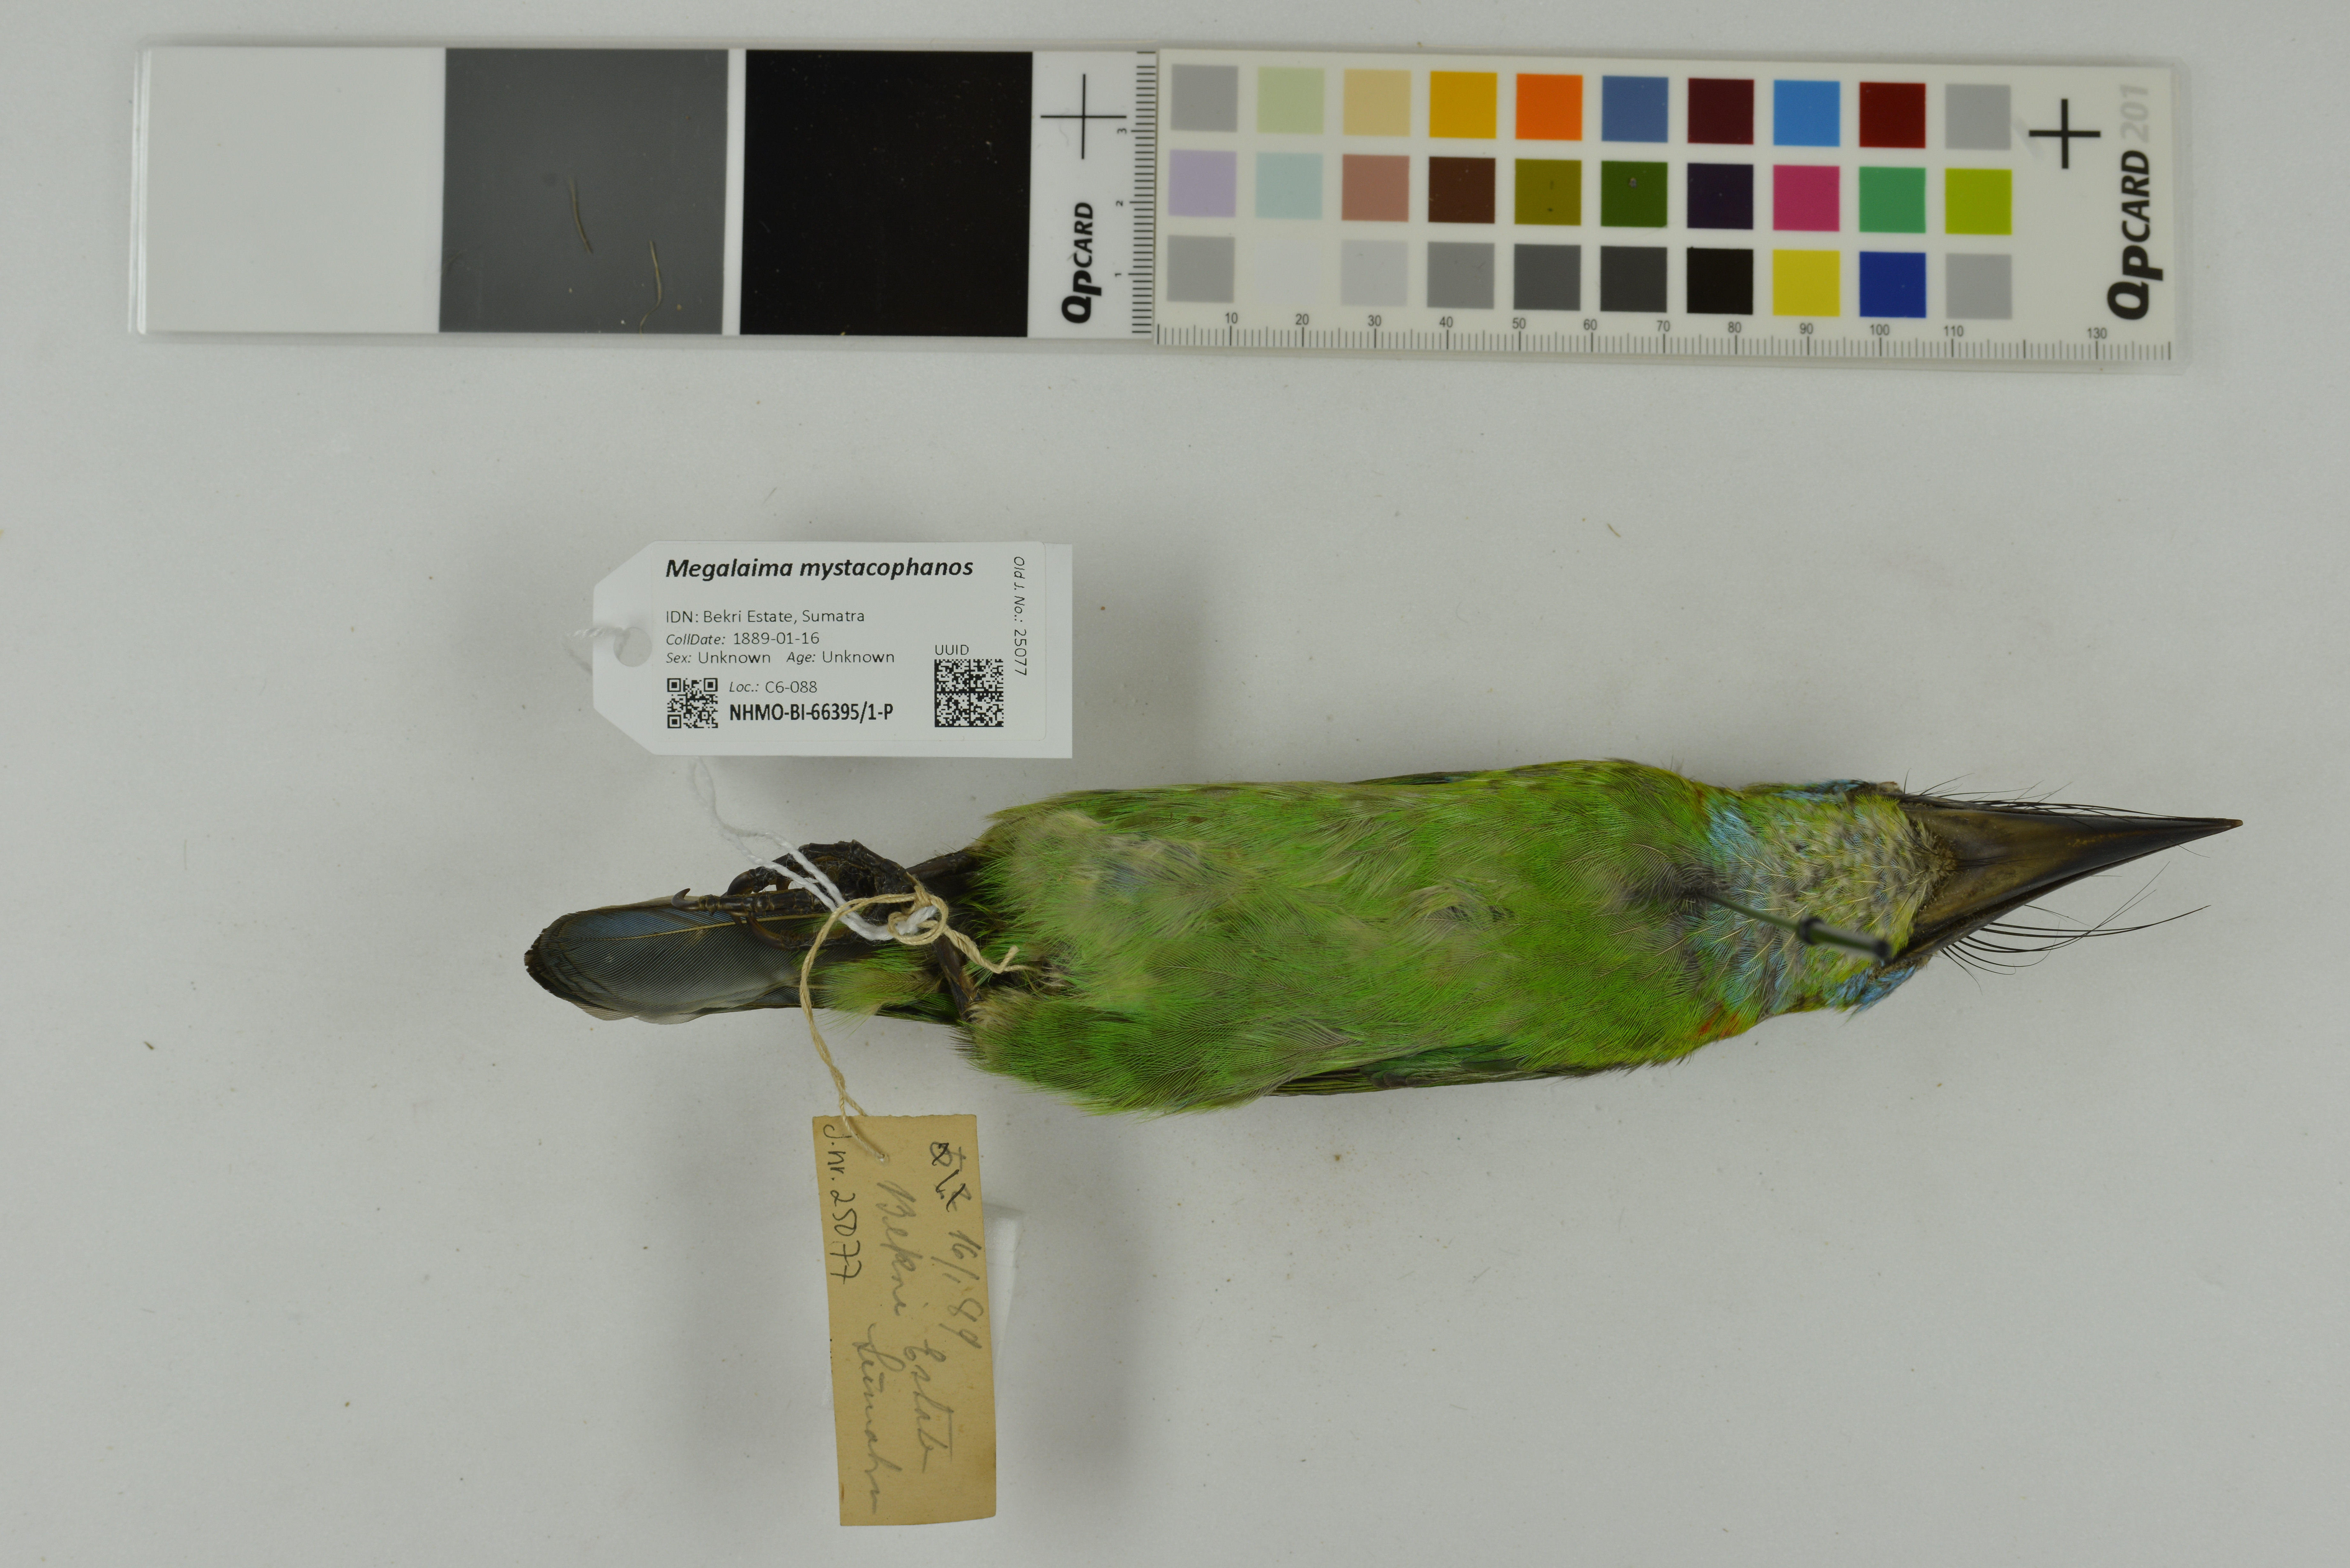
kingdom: Animalia
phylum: Chordata
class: Aves
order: Piciformes
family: Megalaimidae
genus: Psilopogon
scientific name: Psilopogon mystacophanos
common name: Red-throated barbet
